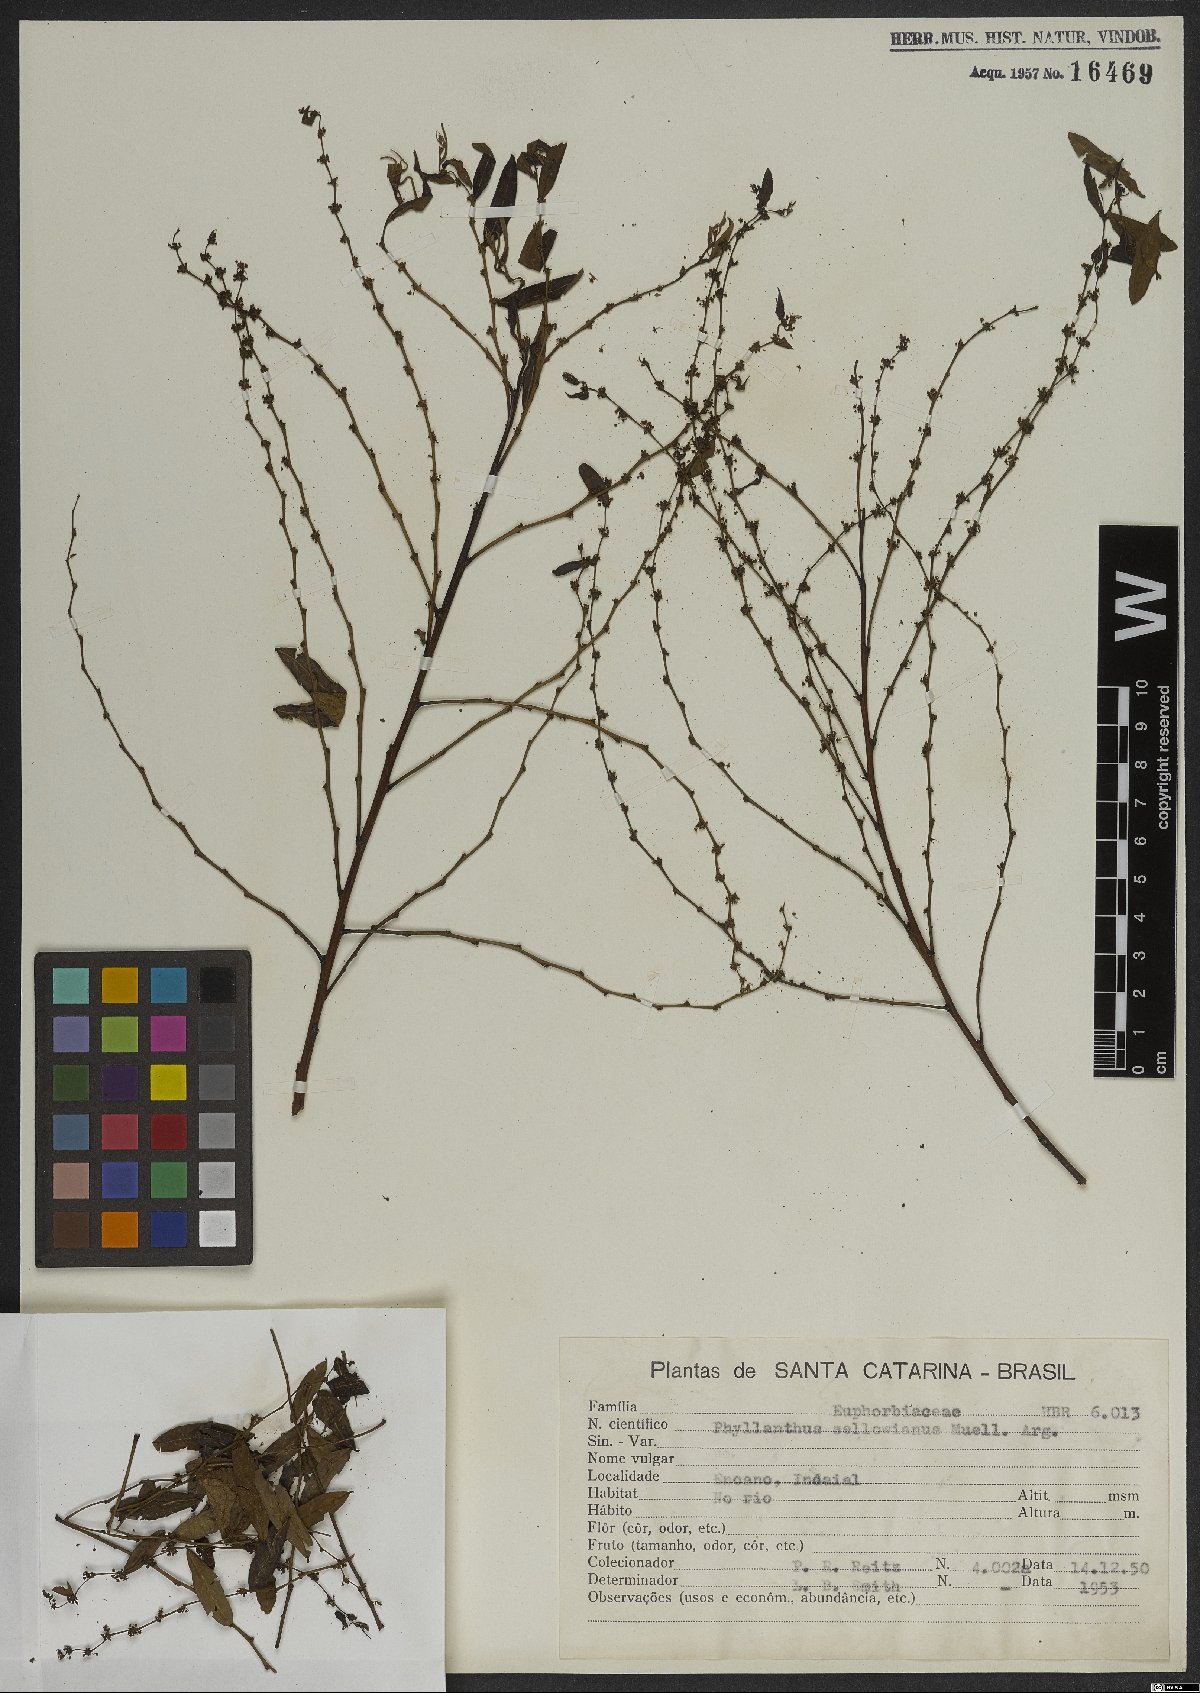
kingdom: Plantae
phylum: Tracheophyta
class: Magnoliopsida
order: Malpighiales
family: Phyllanthaceae
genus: Phyllanthus
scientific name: Phyllanthus sellowianus
